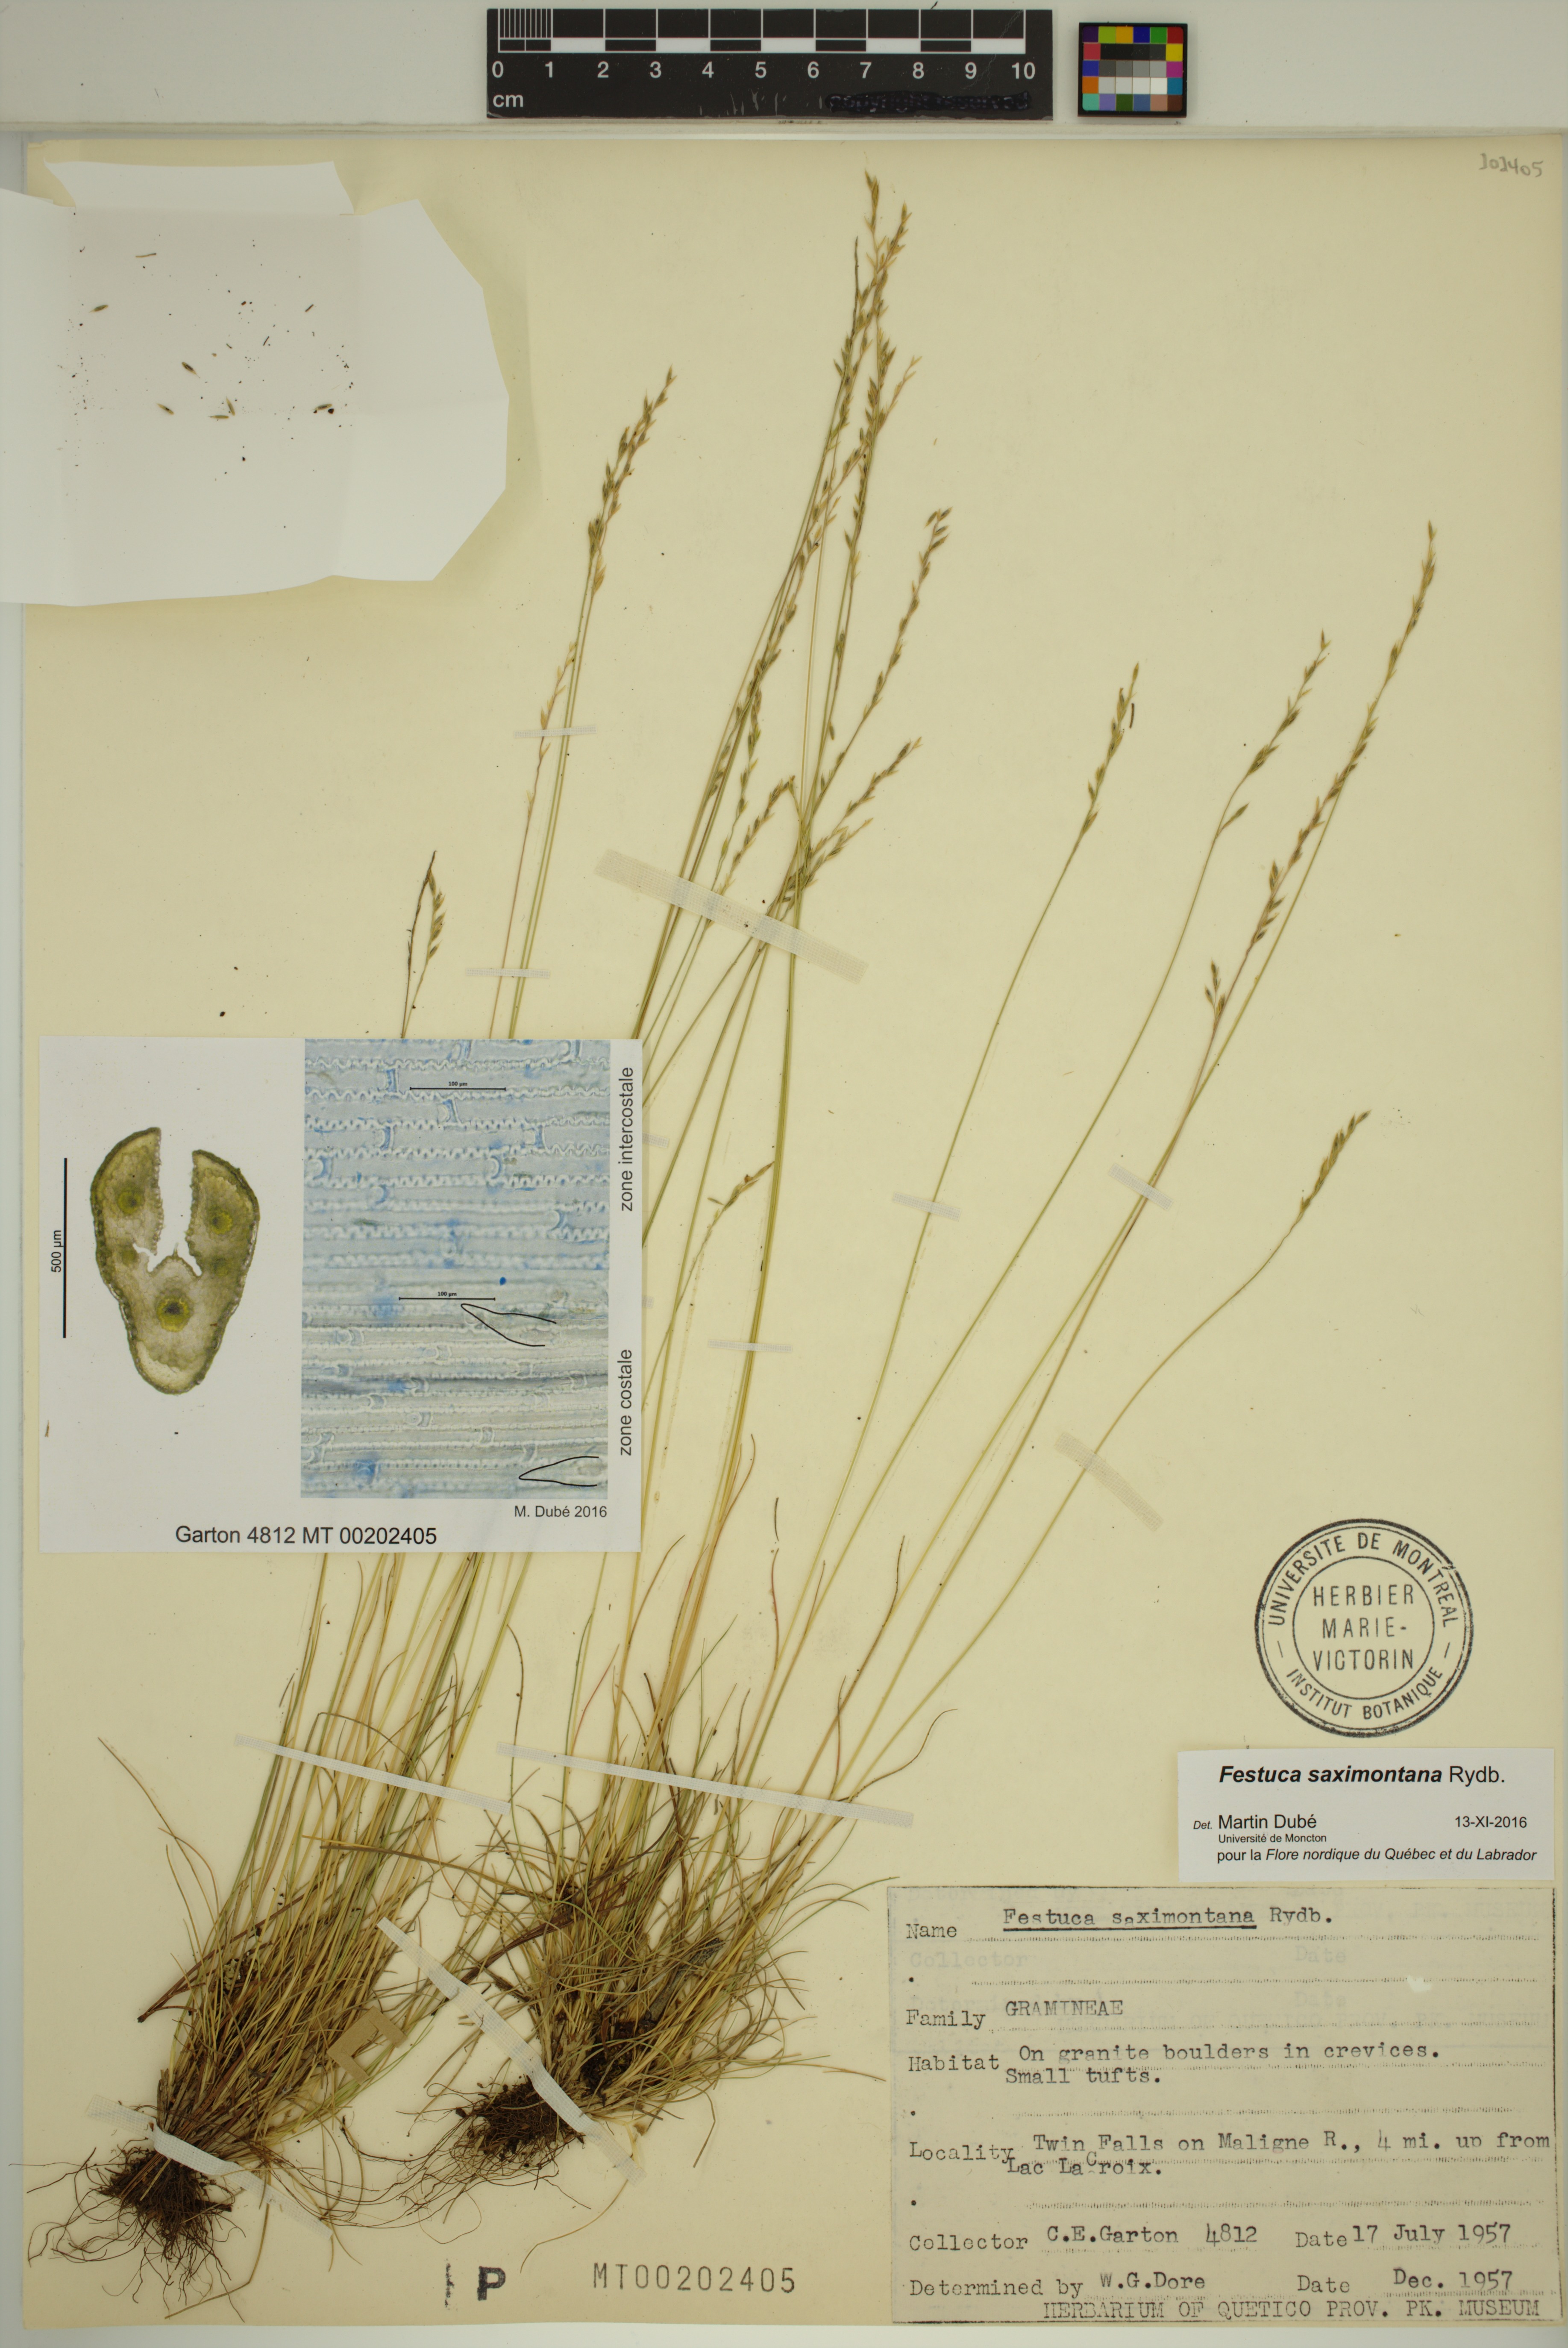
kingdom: Plantae
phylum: Tracheophyta
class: Liliopsida
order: Poales
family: Poaceae
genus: Festuca
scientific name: Festuca saximontana
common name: Mountain fescue
